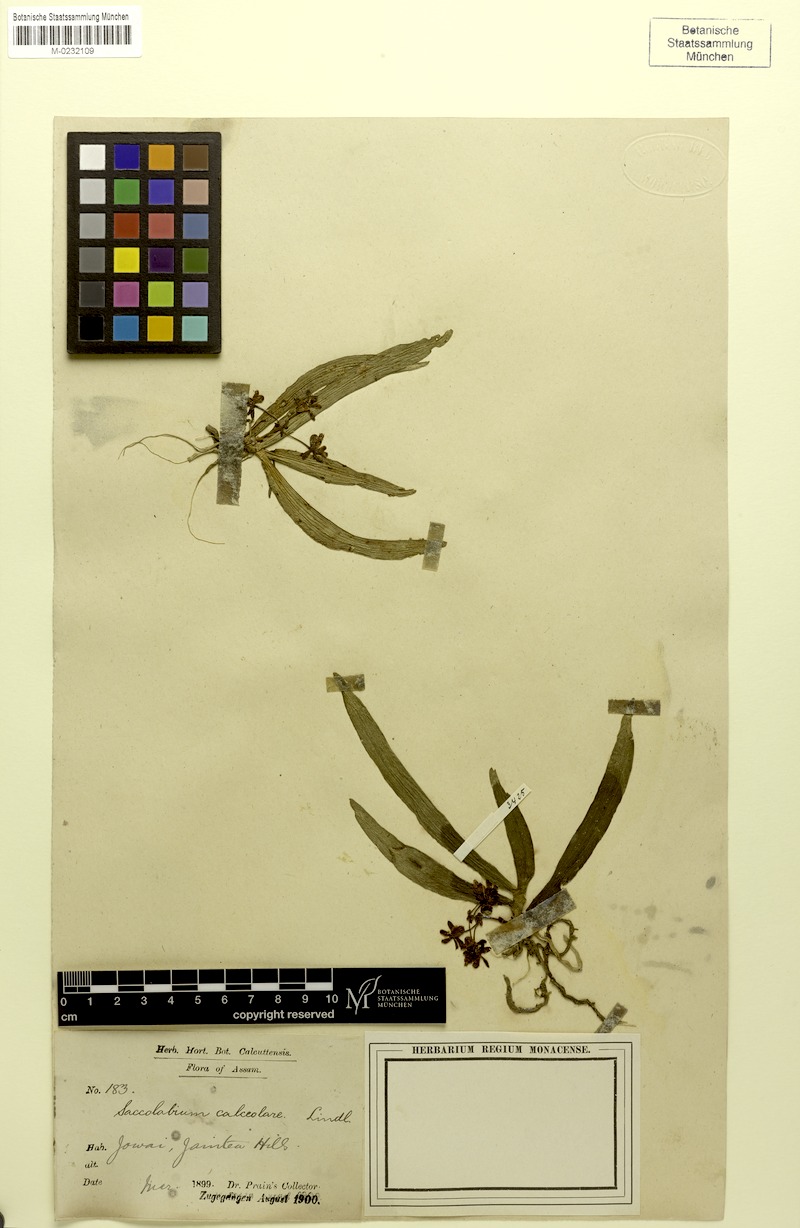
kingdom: Plantae
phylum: Tracheophyta
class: Liliopsida
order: Asparagales
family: Orchidaceae
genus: Gastrochilus
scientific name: Gastrochilus calceolaris
